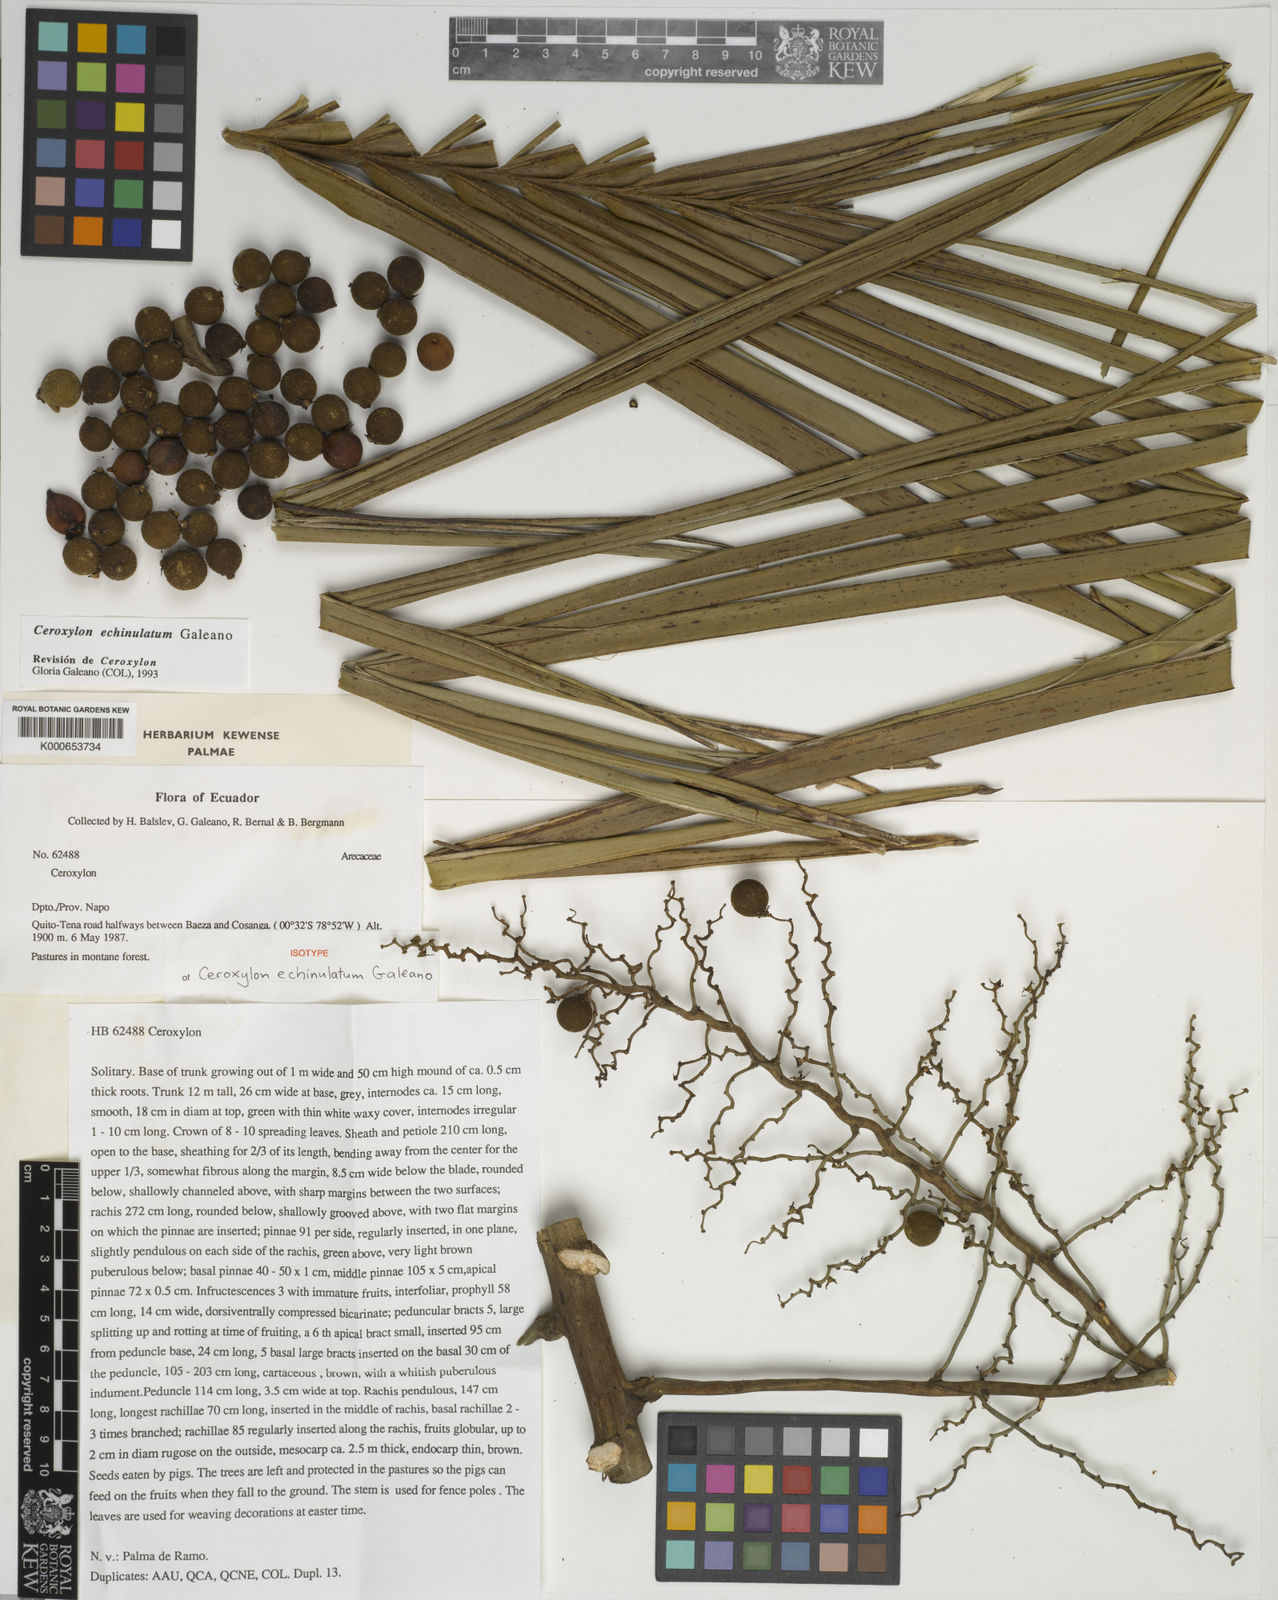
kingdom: Plantae
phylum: Tracheophyta
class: Liliopsida
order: Arecales
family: Arecaceae
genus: Ceroxylon
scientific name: Ceroxylon echinulatum
